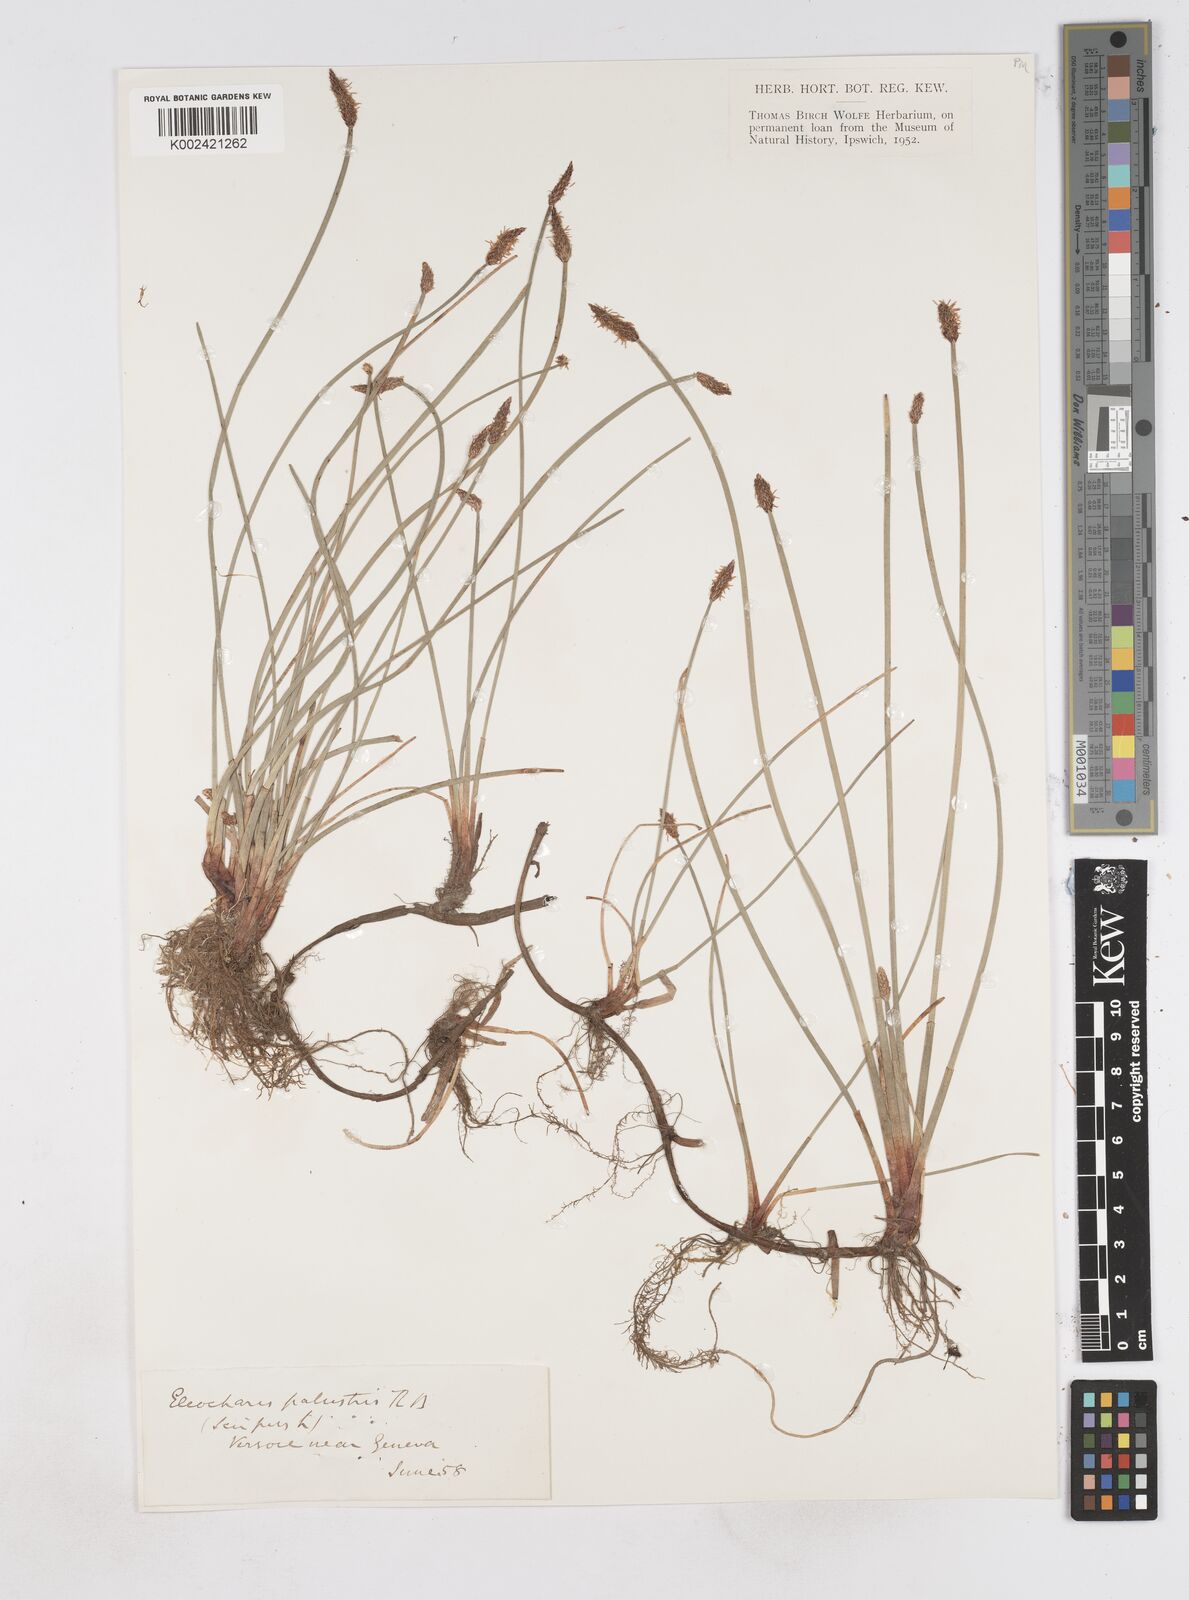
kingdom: Plantae
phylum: Tracheophyta
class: Liliopsida
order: Poales
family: Cyperaceae
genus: Eleocharis
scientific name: Eleocharis palustris
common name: Common spike-rush
